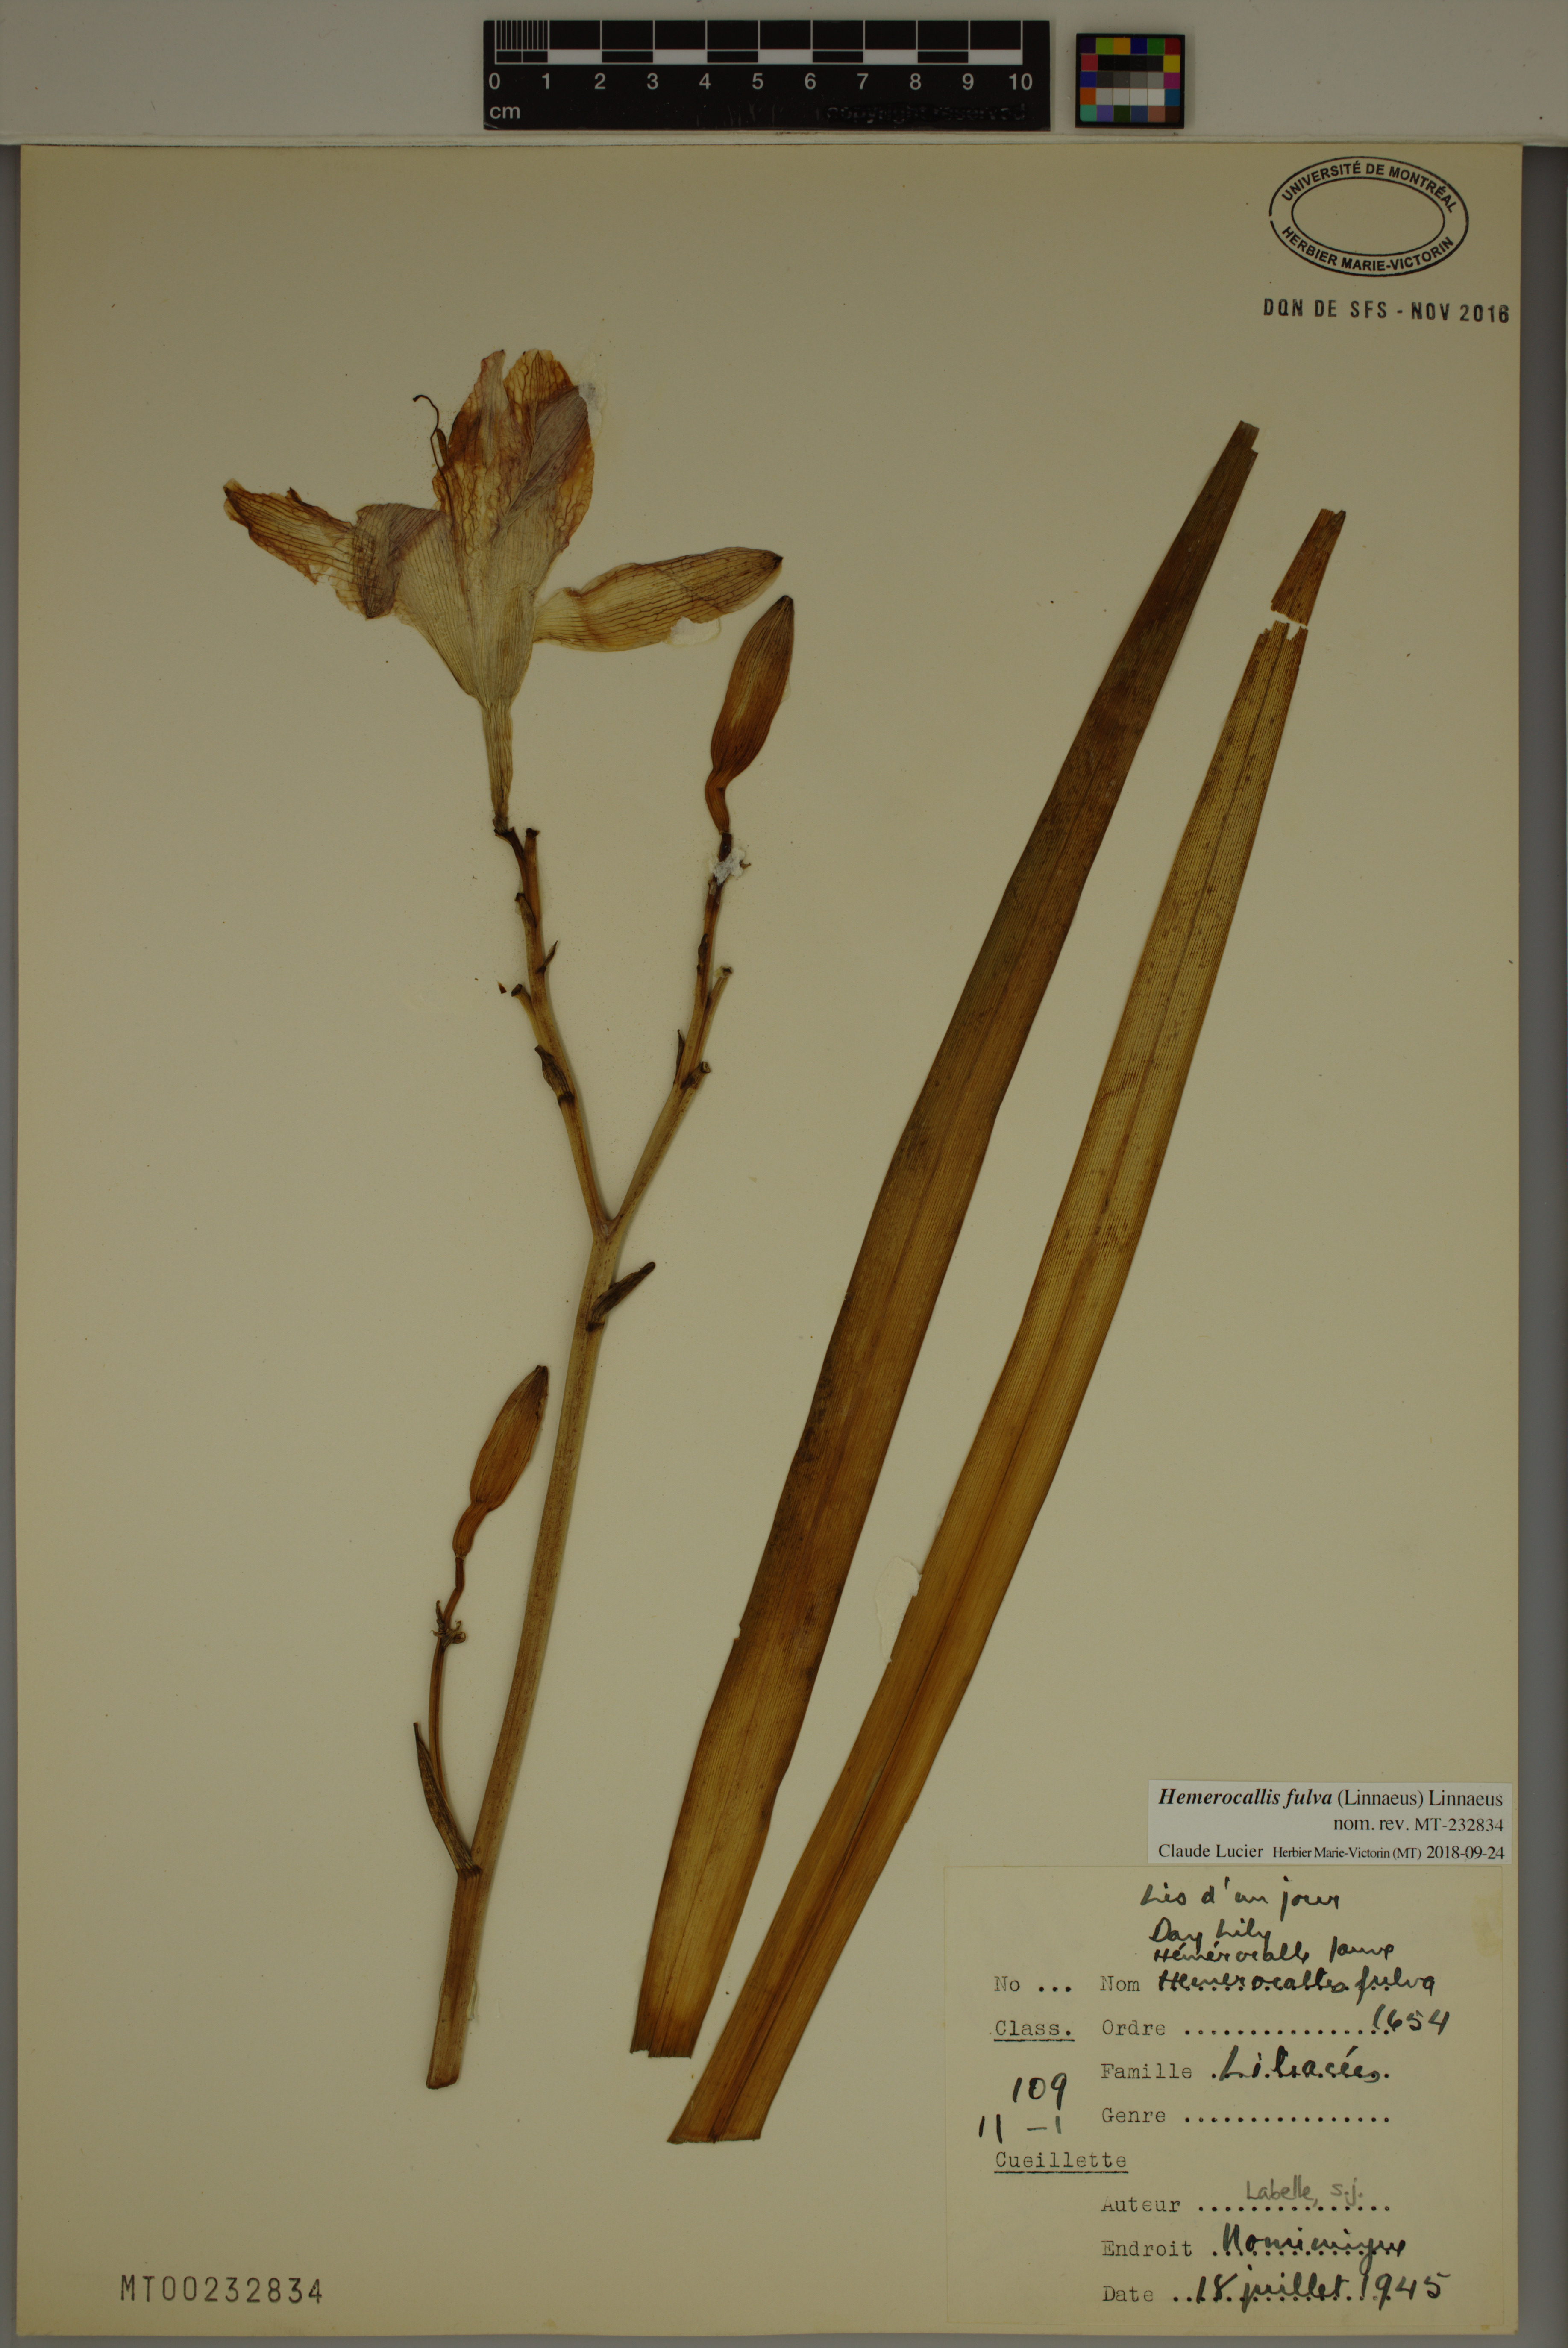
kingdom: Plantae
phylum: Tracheophyta
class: Liliopsida
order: Asparagales
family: Asphodelaceae
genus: Hemerocallis
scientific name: Hemerocallis fulva
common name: Orange day-lily
